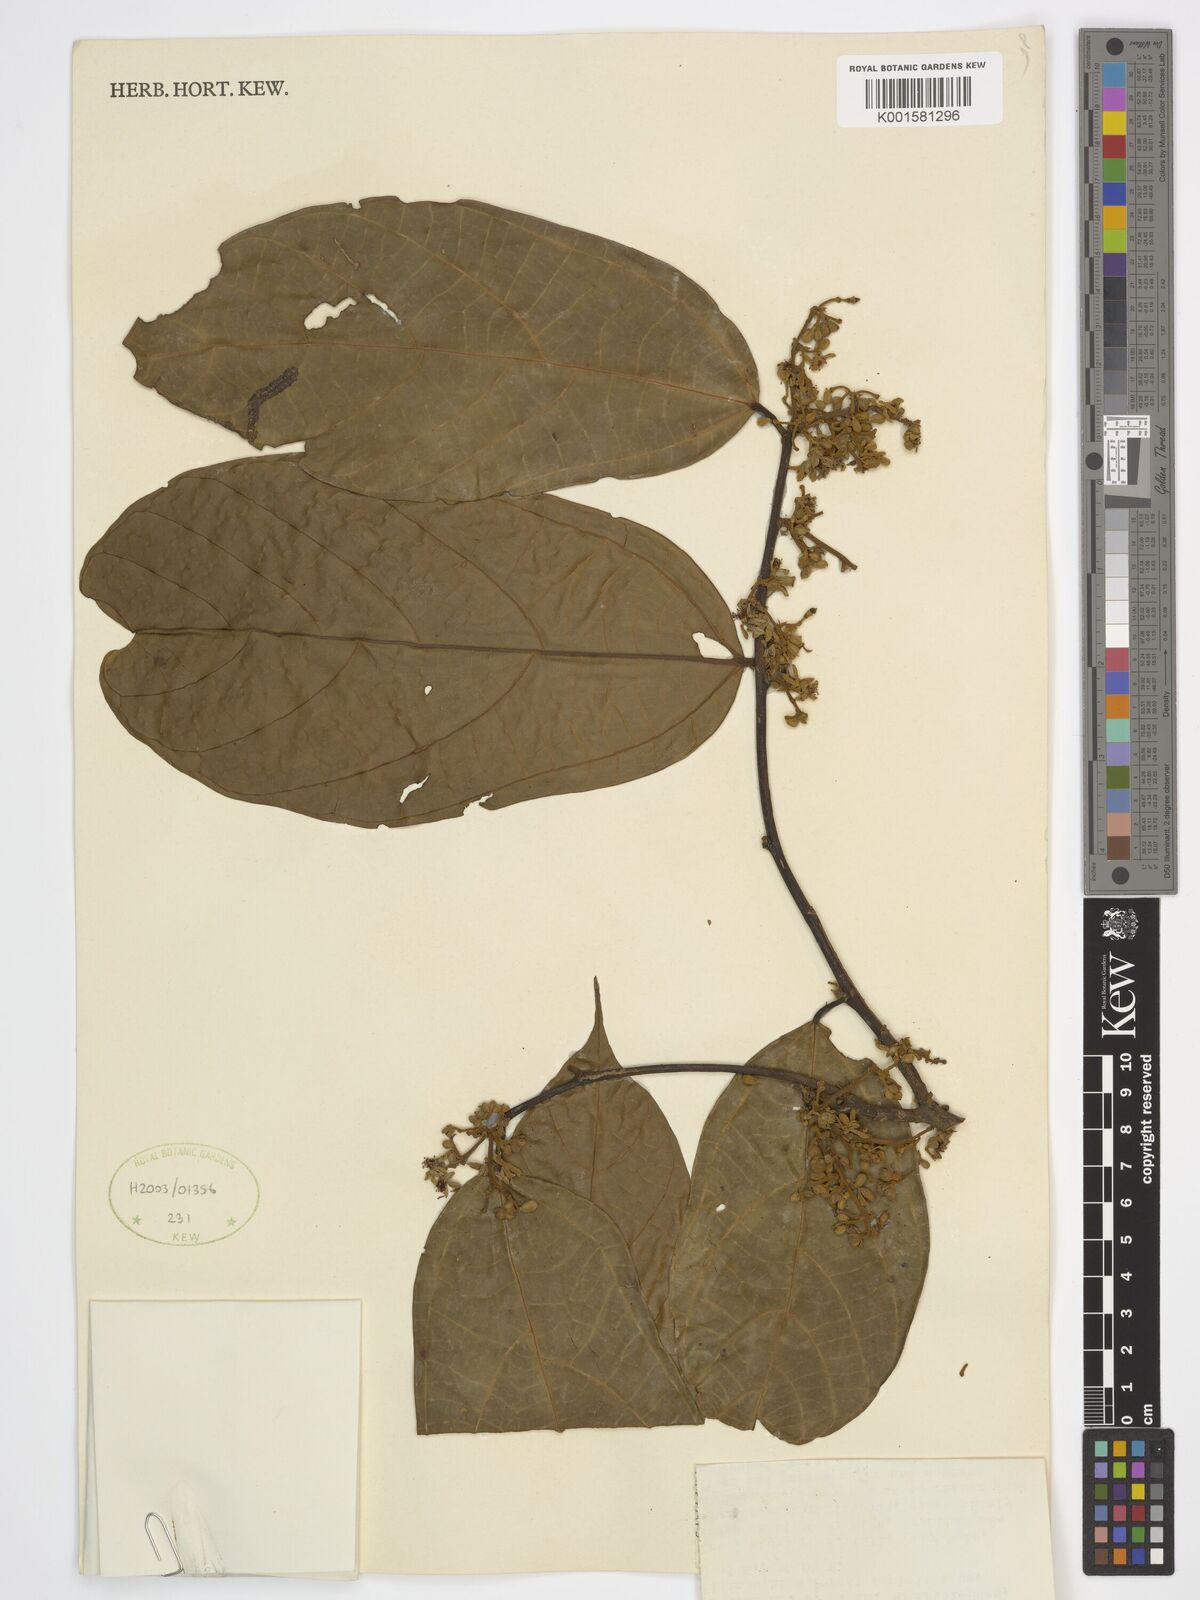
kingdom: Plantae
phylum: Tracheophyta
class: Magnoliopsida
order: Malvales
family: Malvaceae
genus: Microcos
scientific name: Microcos coriacea
